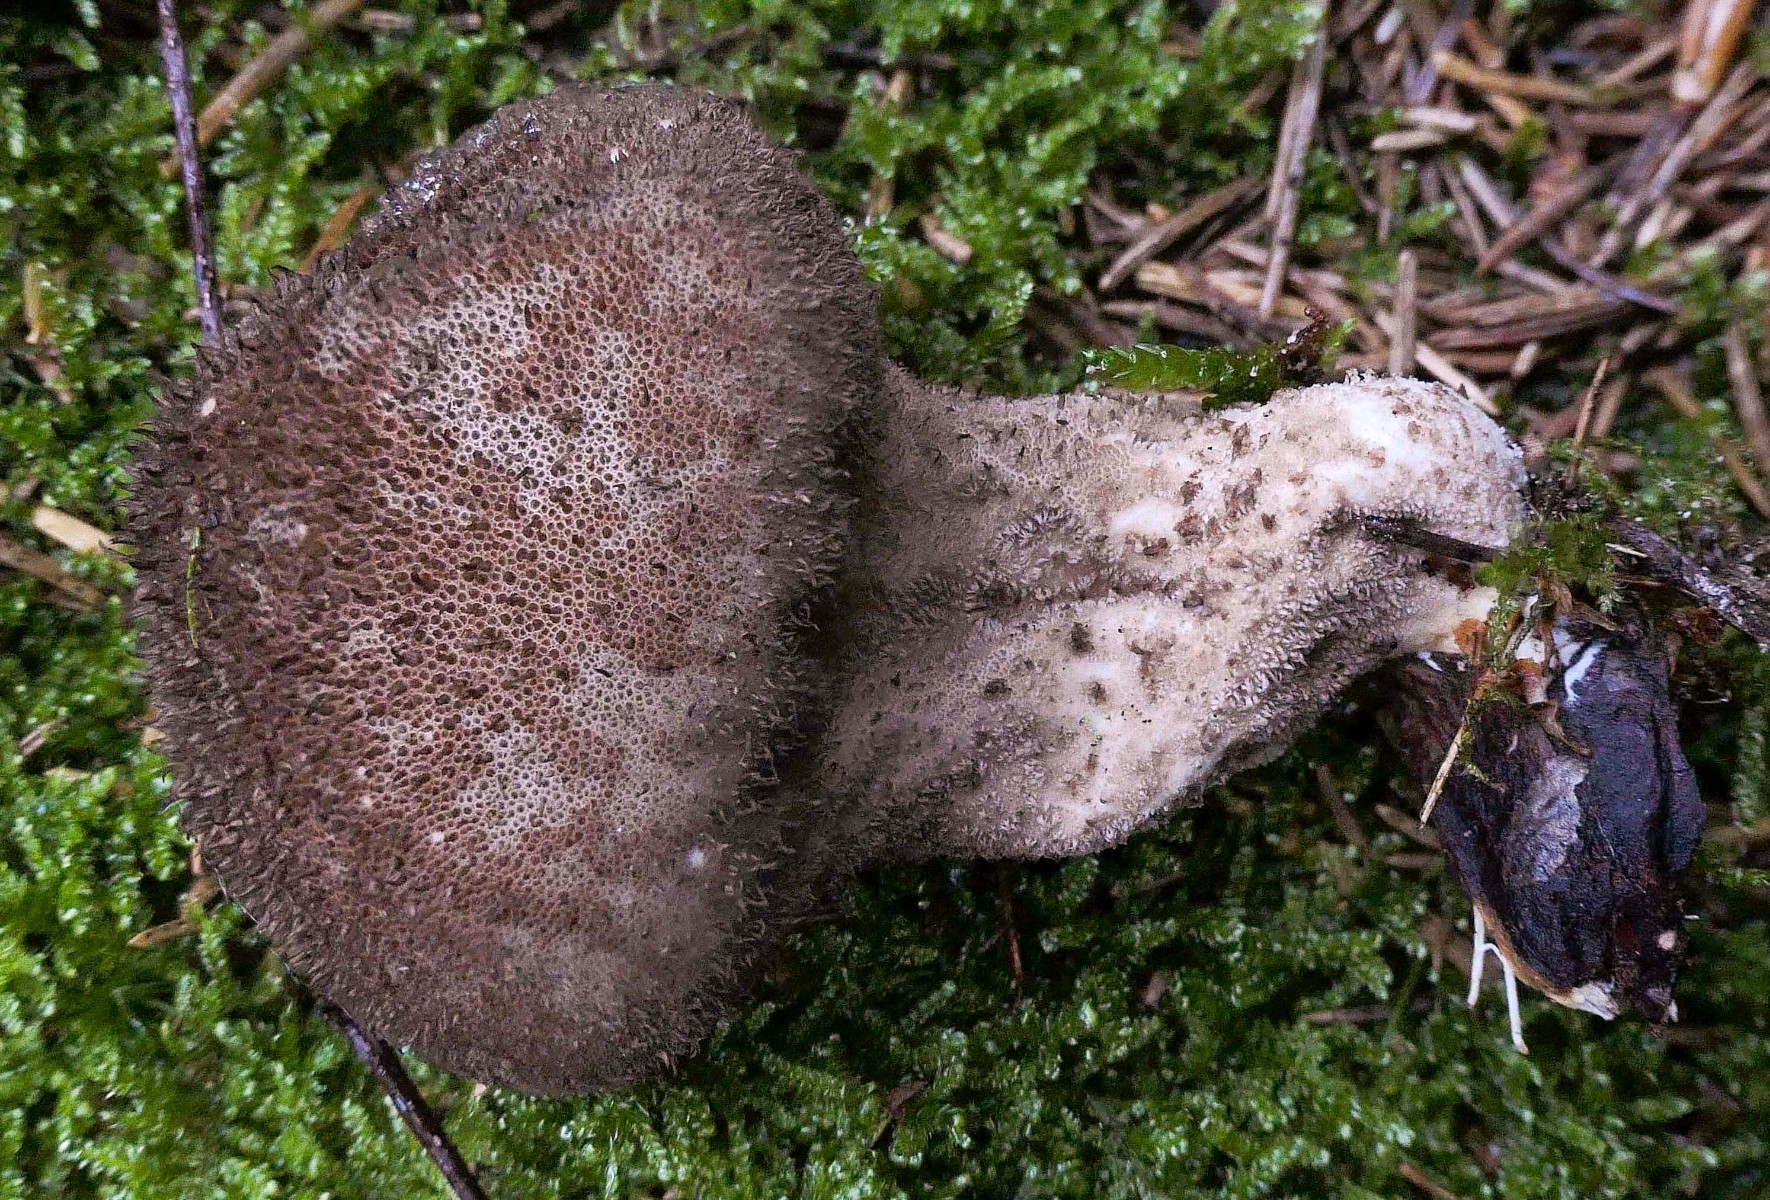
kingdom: Fungi
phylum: Basidiomycota
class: Agaricomycetes
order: Agaricales
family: Agaricaceae
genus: Lycoperdon
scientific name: Lycoperdon
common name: støvbold
